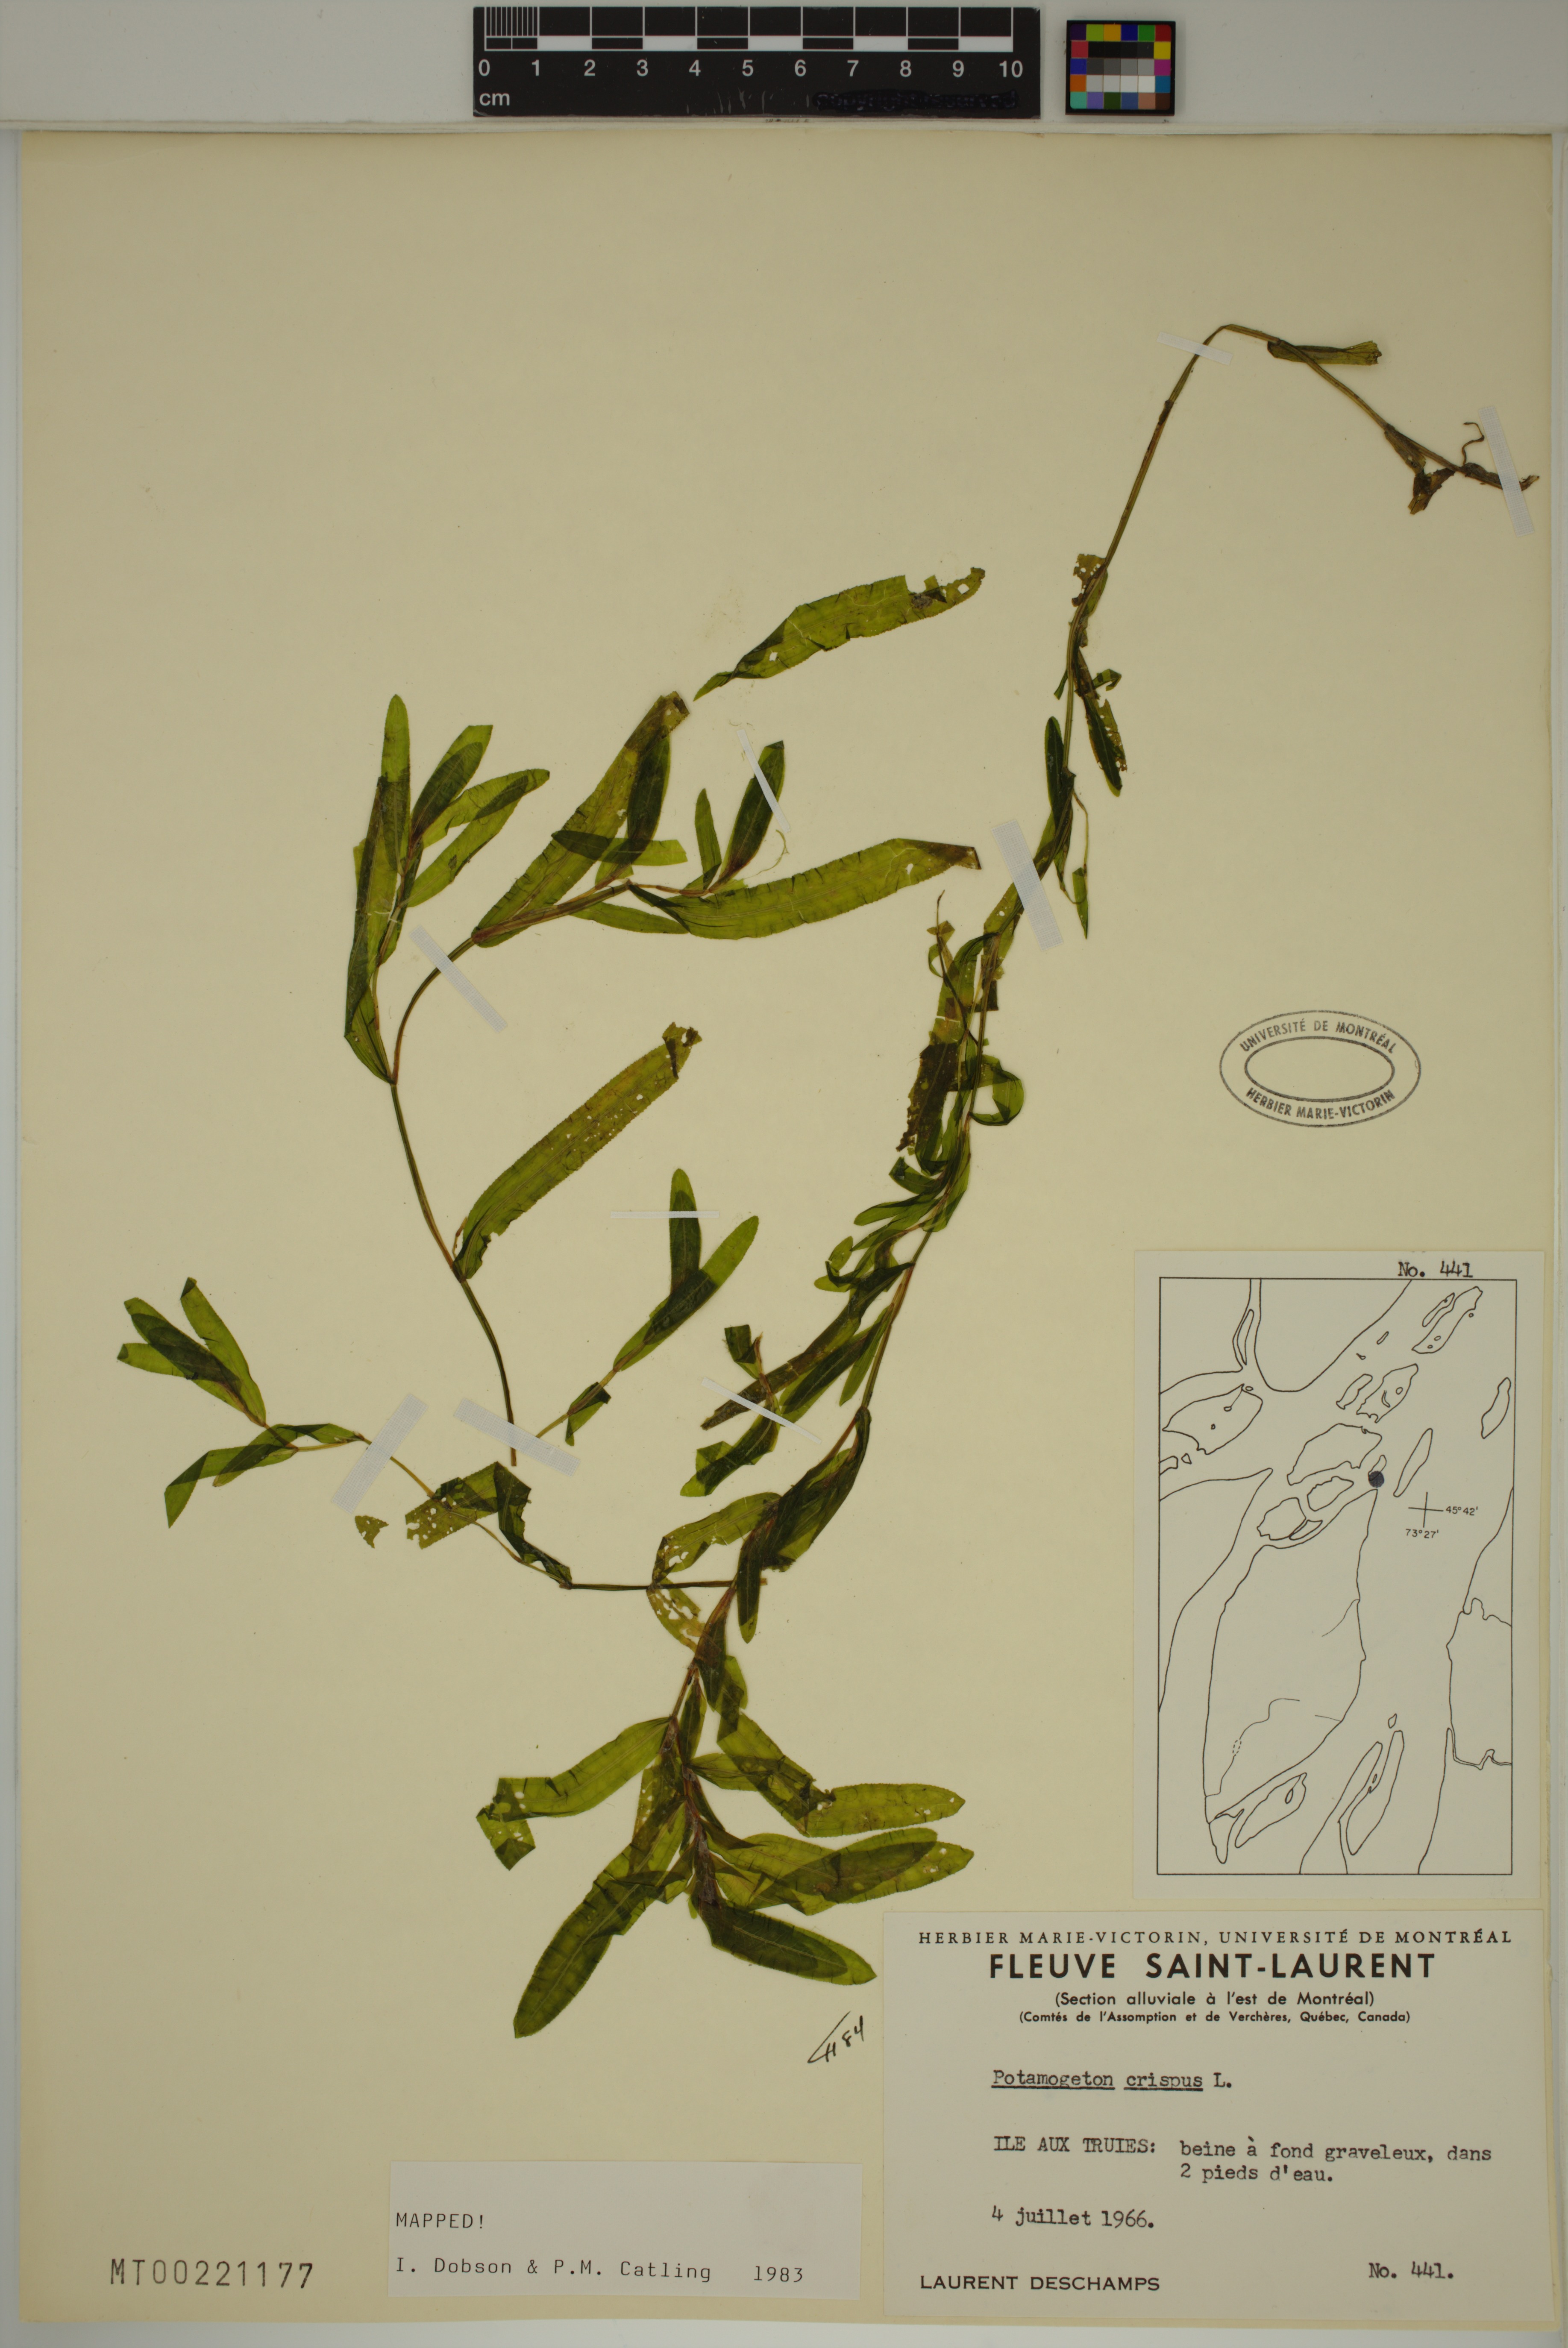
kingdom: Plantae
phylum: Tracheophyta
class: Liliopsida
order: Alismatales
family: Potamogetonaceae
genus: Potamogeton
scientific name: Potamogeton crispus
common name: Curled pondweed
